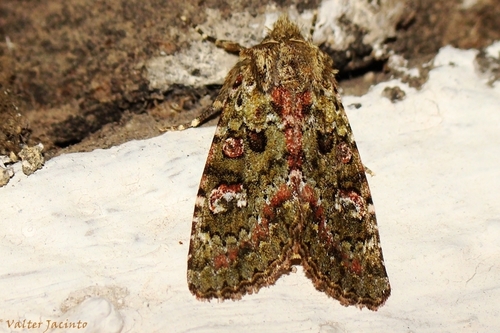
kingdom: Animalia
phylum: Arthropoda
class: Insecta
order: Lepidoptera
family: Noctuidae
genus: Polymixis
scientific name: Polymixis lichenea
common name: Feathered ranunculus
